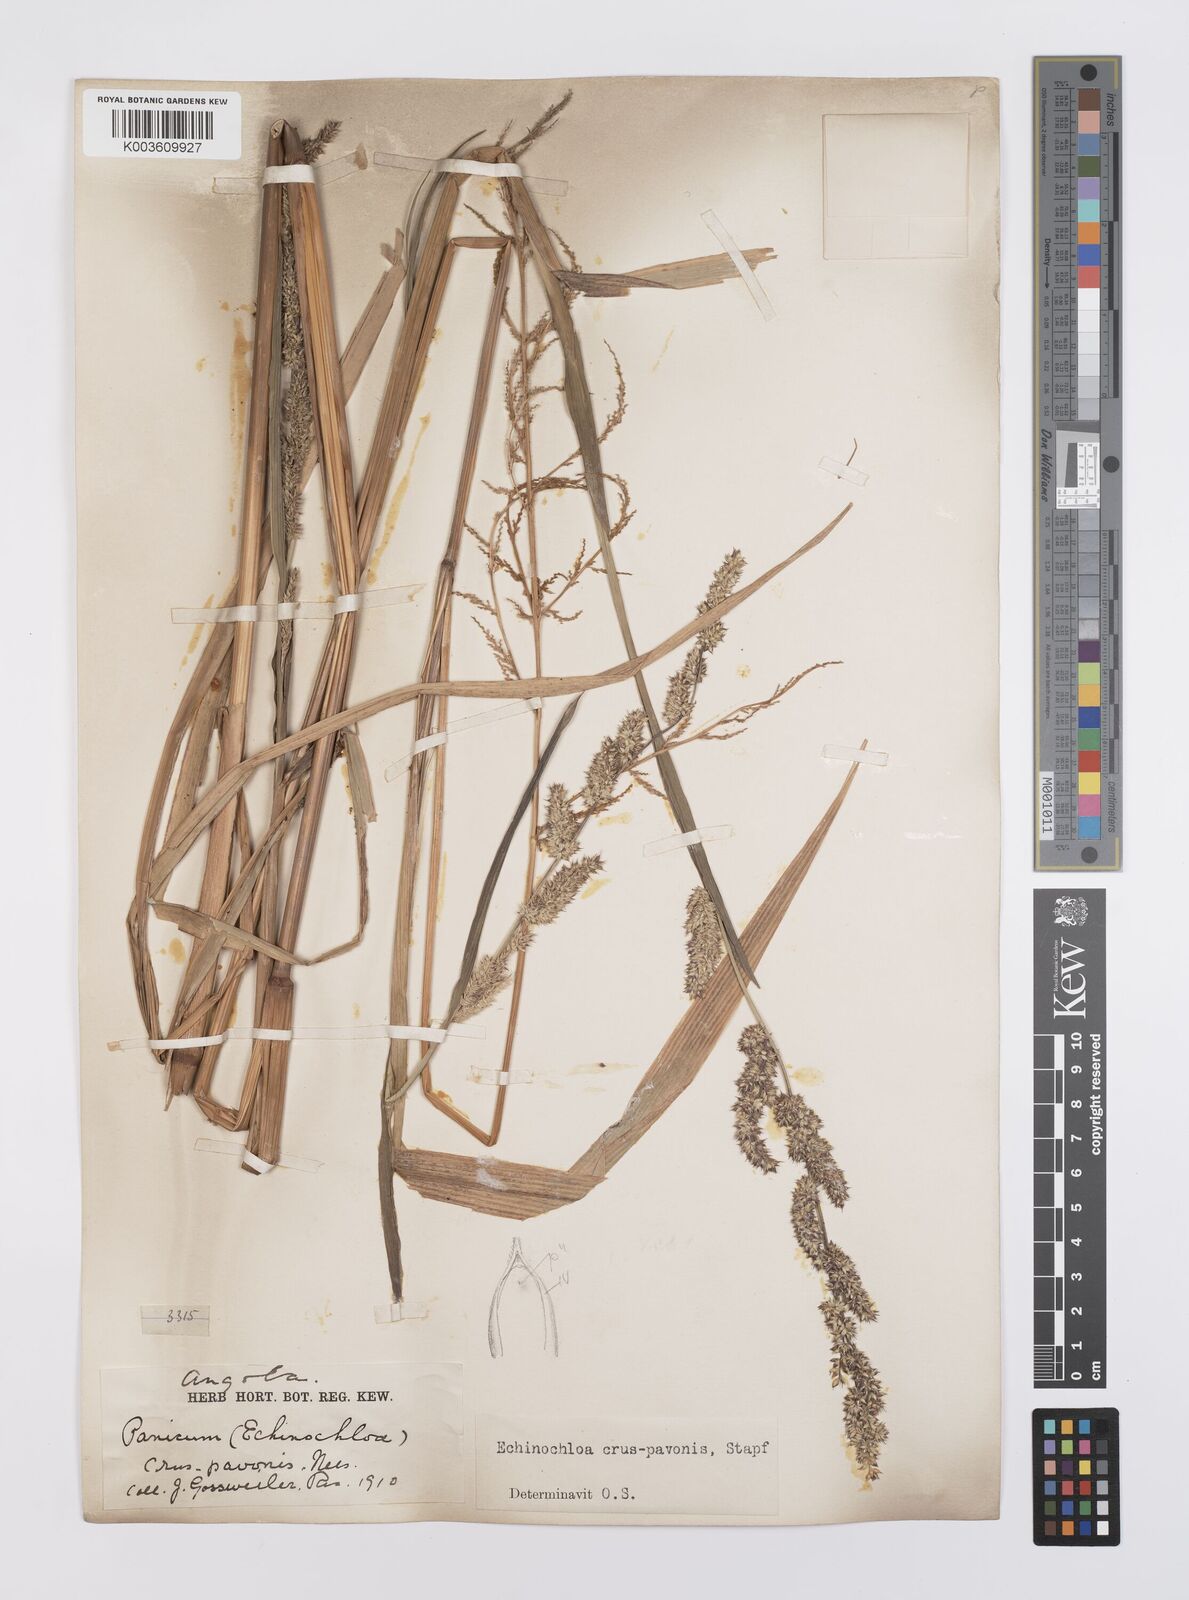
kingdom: Plantae
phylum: Tracheophyta
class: Liliopsida
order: Poales
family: Poaceae
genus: Echinochloa
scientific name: Echinochloa crus-pavonis
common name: Gulf cockspur grass
